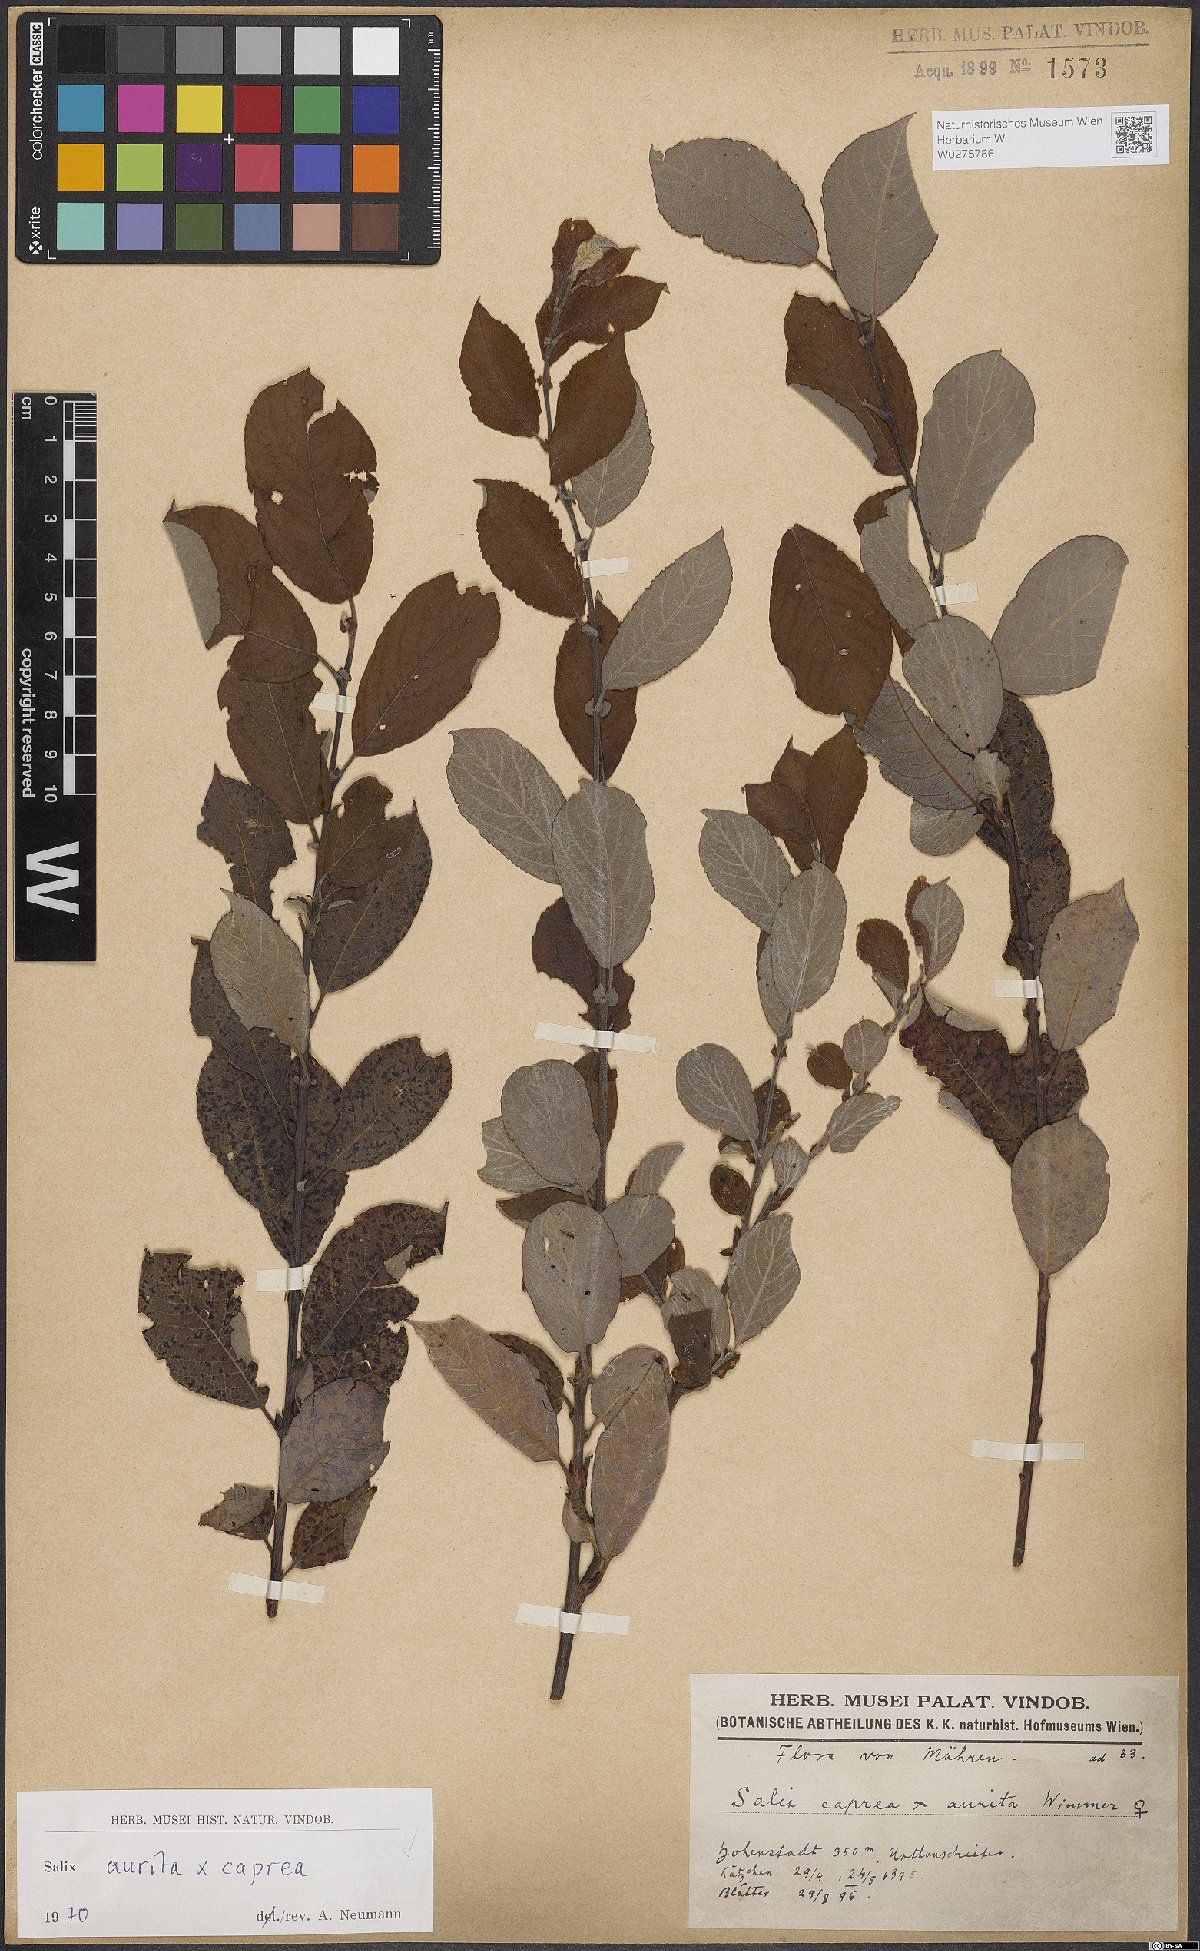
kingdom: Plantae
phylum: Tracheophyta
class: Magnoliopsida
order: Malpighiales
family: Salicaceae
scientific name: Salicaceae
